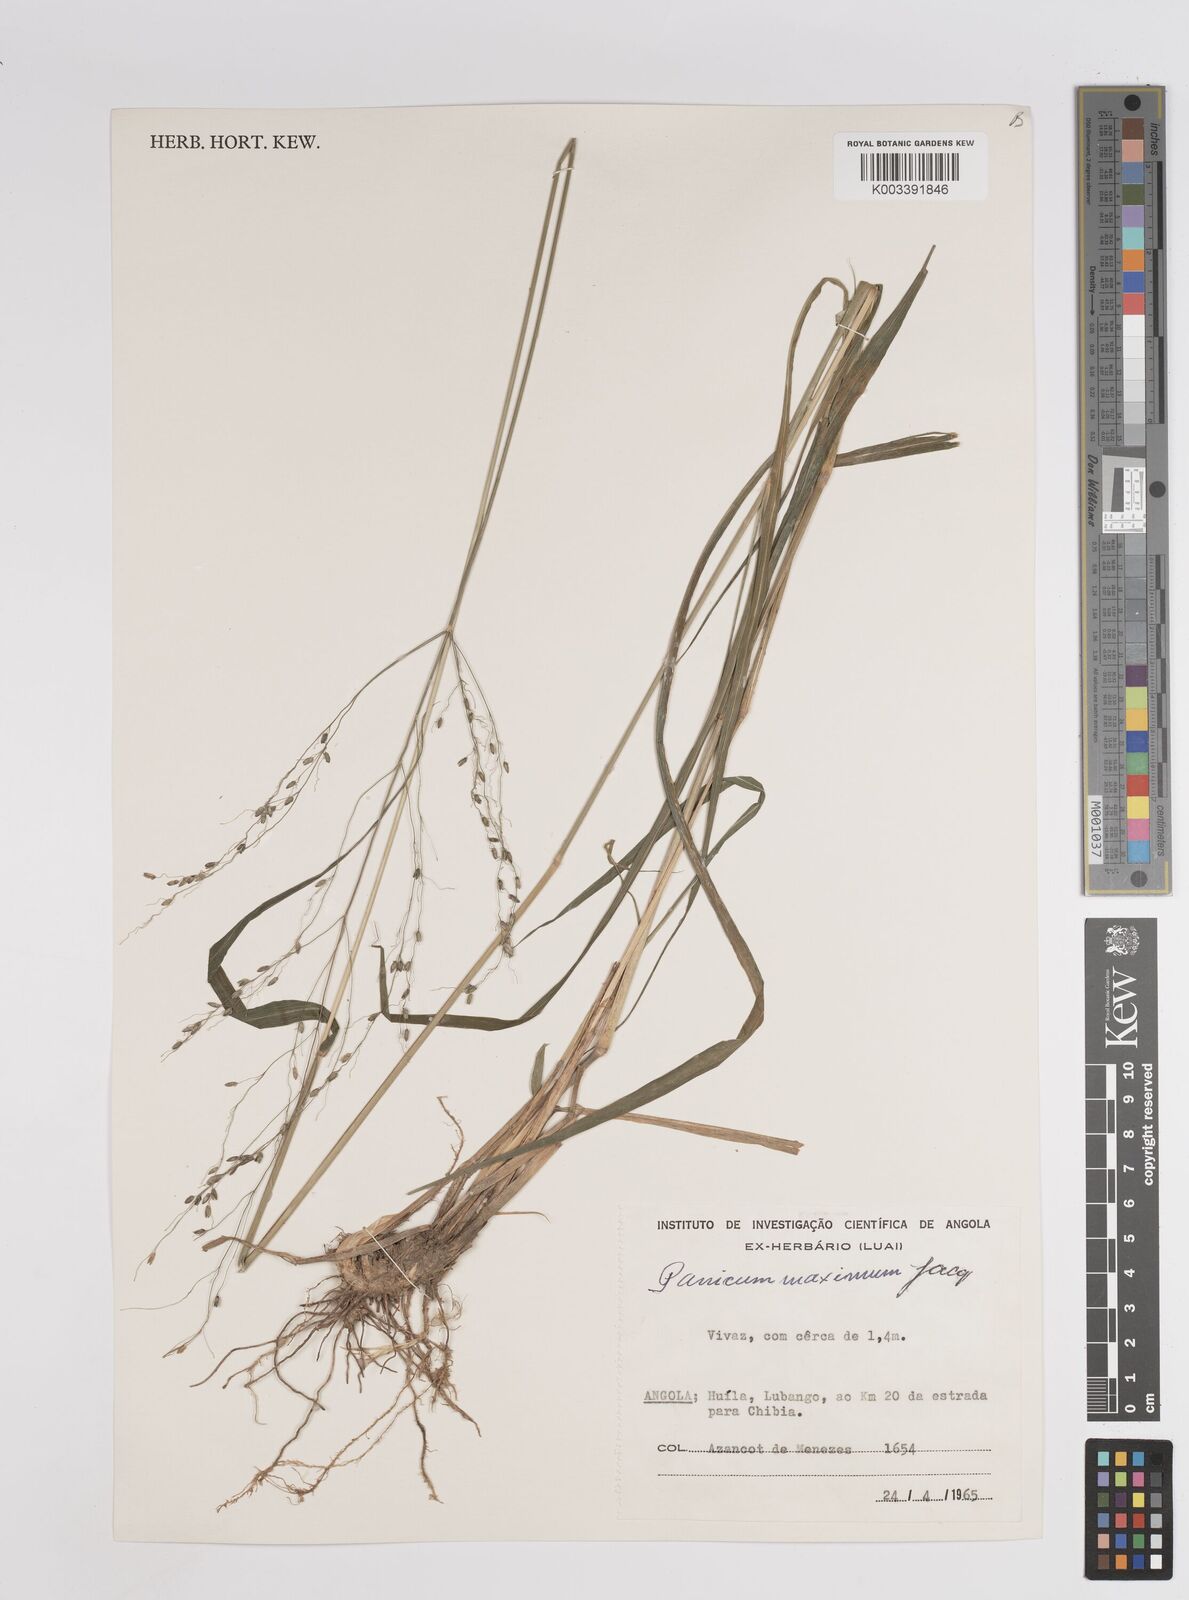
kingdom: Plantae
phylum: Tracheophyta
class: Liliopsida
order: Poales
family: Poaceae
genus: Megathyrsus
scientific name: Megathyrsus maximus
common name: Guineagrass
